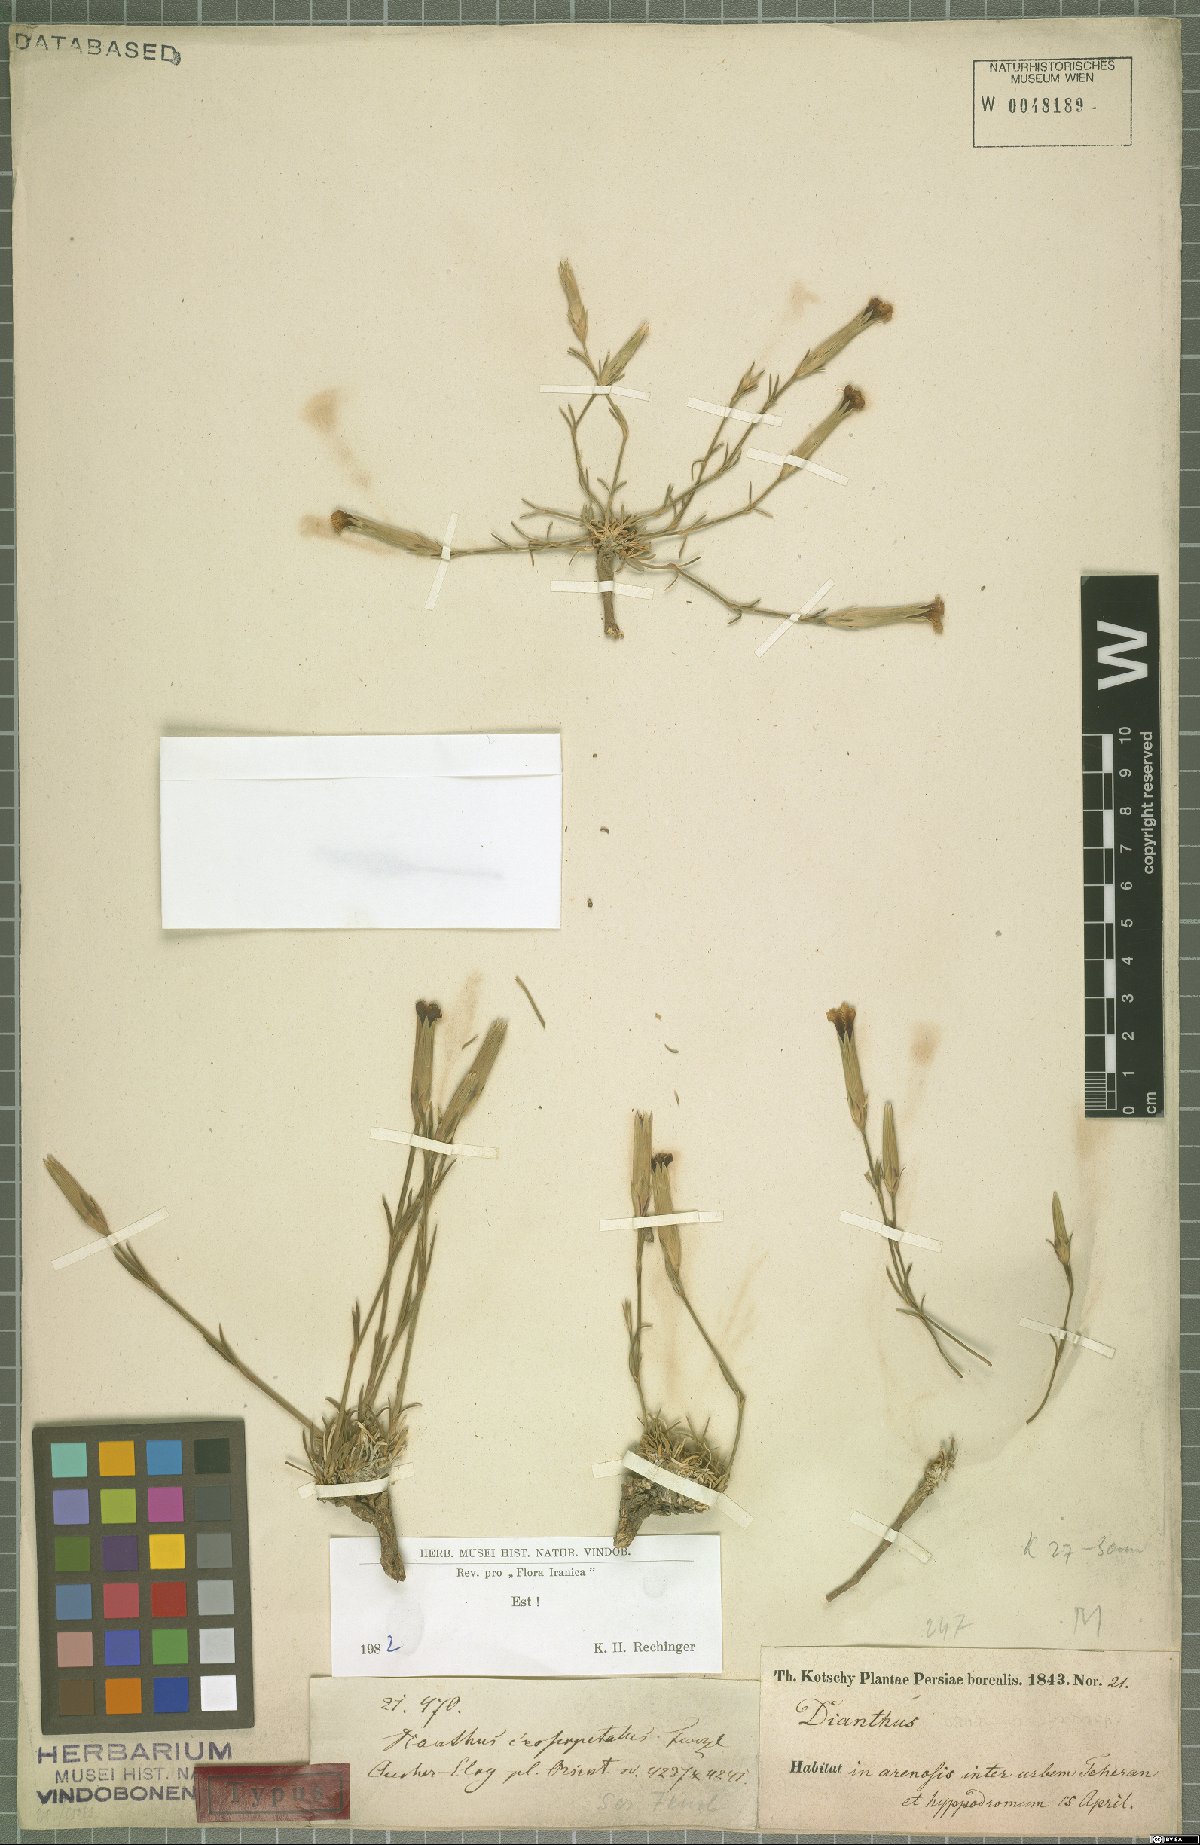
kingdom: Plantae
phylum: Tracheophyta
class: Magnoliopsida
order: Caryophyllales
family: Caryophyllaceae
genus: Dianthus
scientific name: Dianthus crossopetalus
